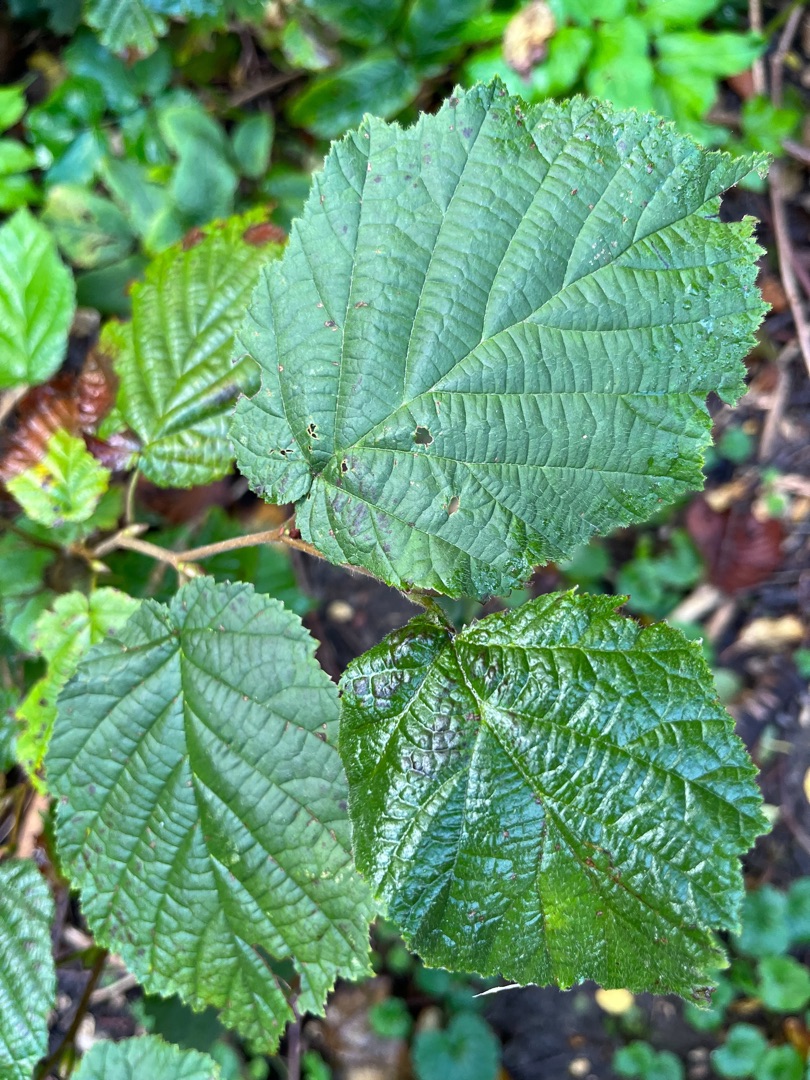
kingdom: Plantae
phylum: Tracheophyta
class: Magnoliopsida
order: Fagales
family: Betulaceae
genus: Corylus
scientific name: Corylus avellana
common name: Hassel
